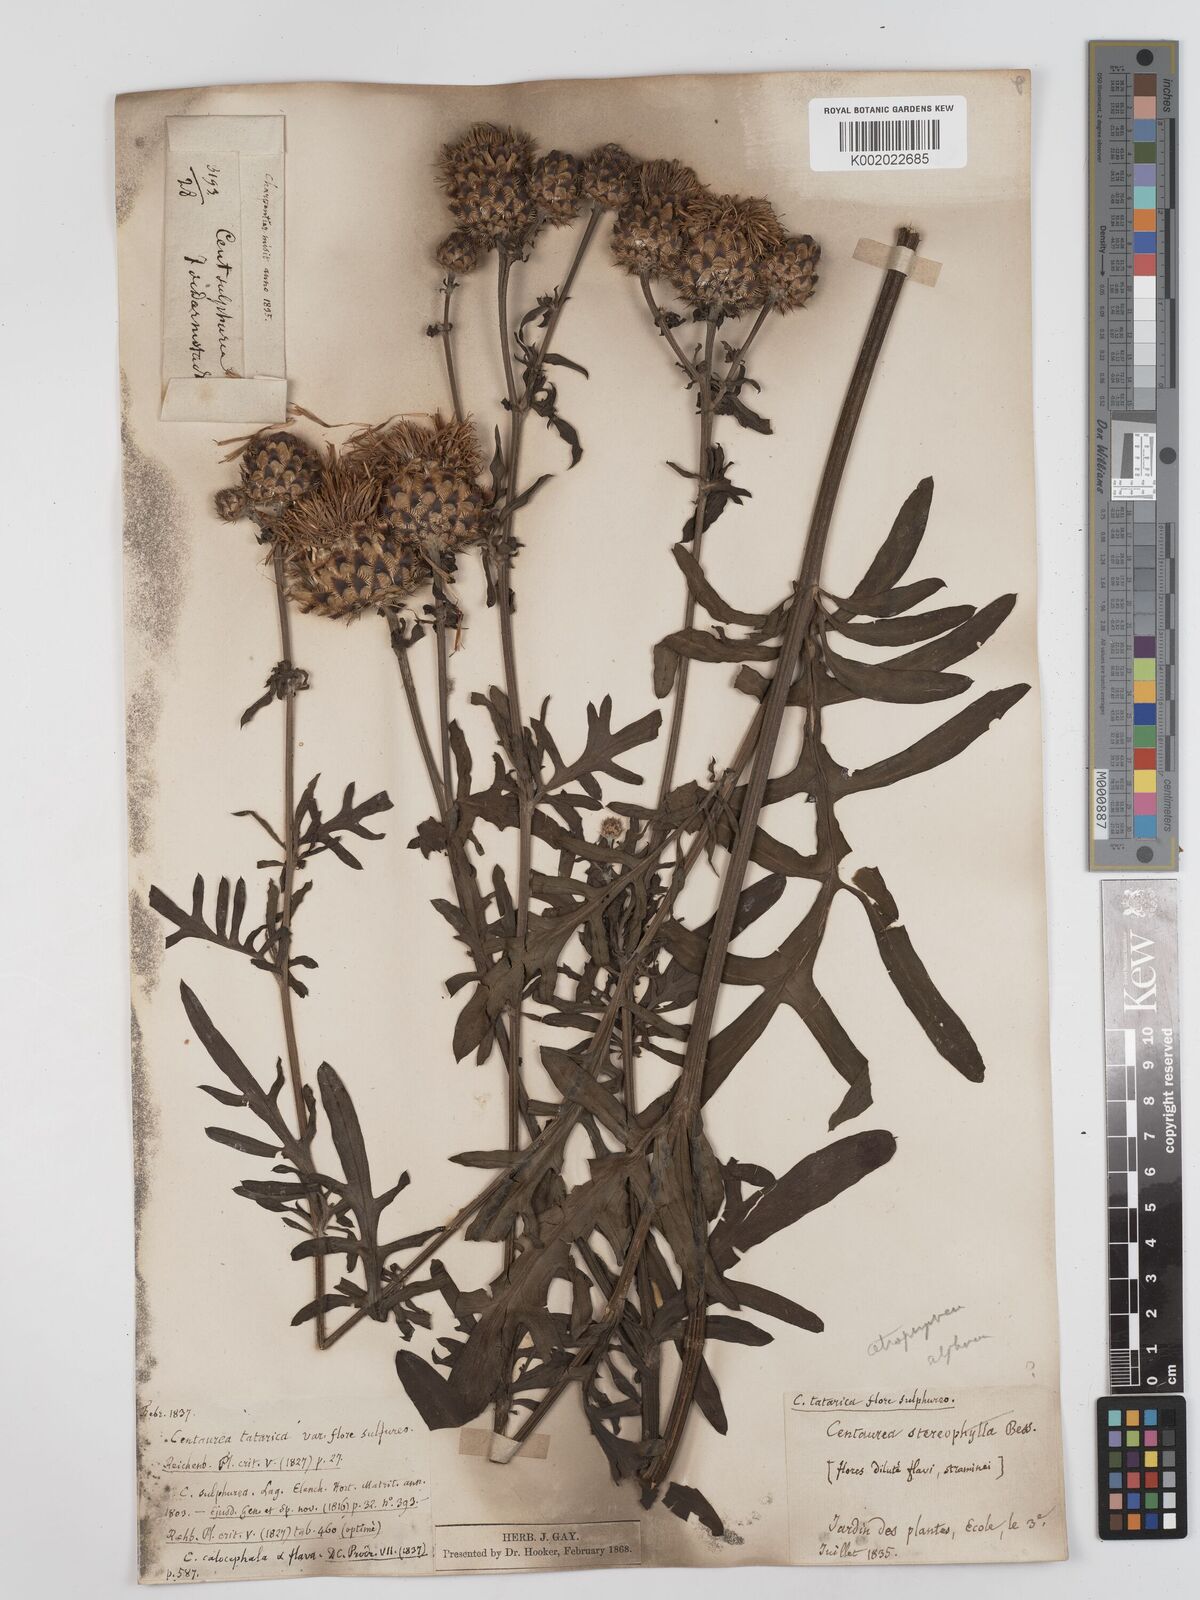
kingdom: Plantae
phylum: Tracheophyta
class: Magnoliopsida
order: Asterales
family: Asteraceae
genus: Centaurea
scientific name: Centaurea calocephala
